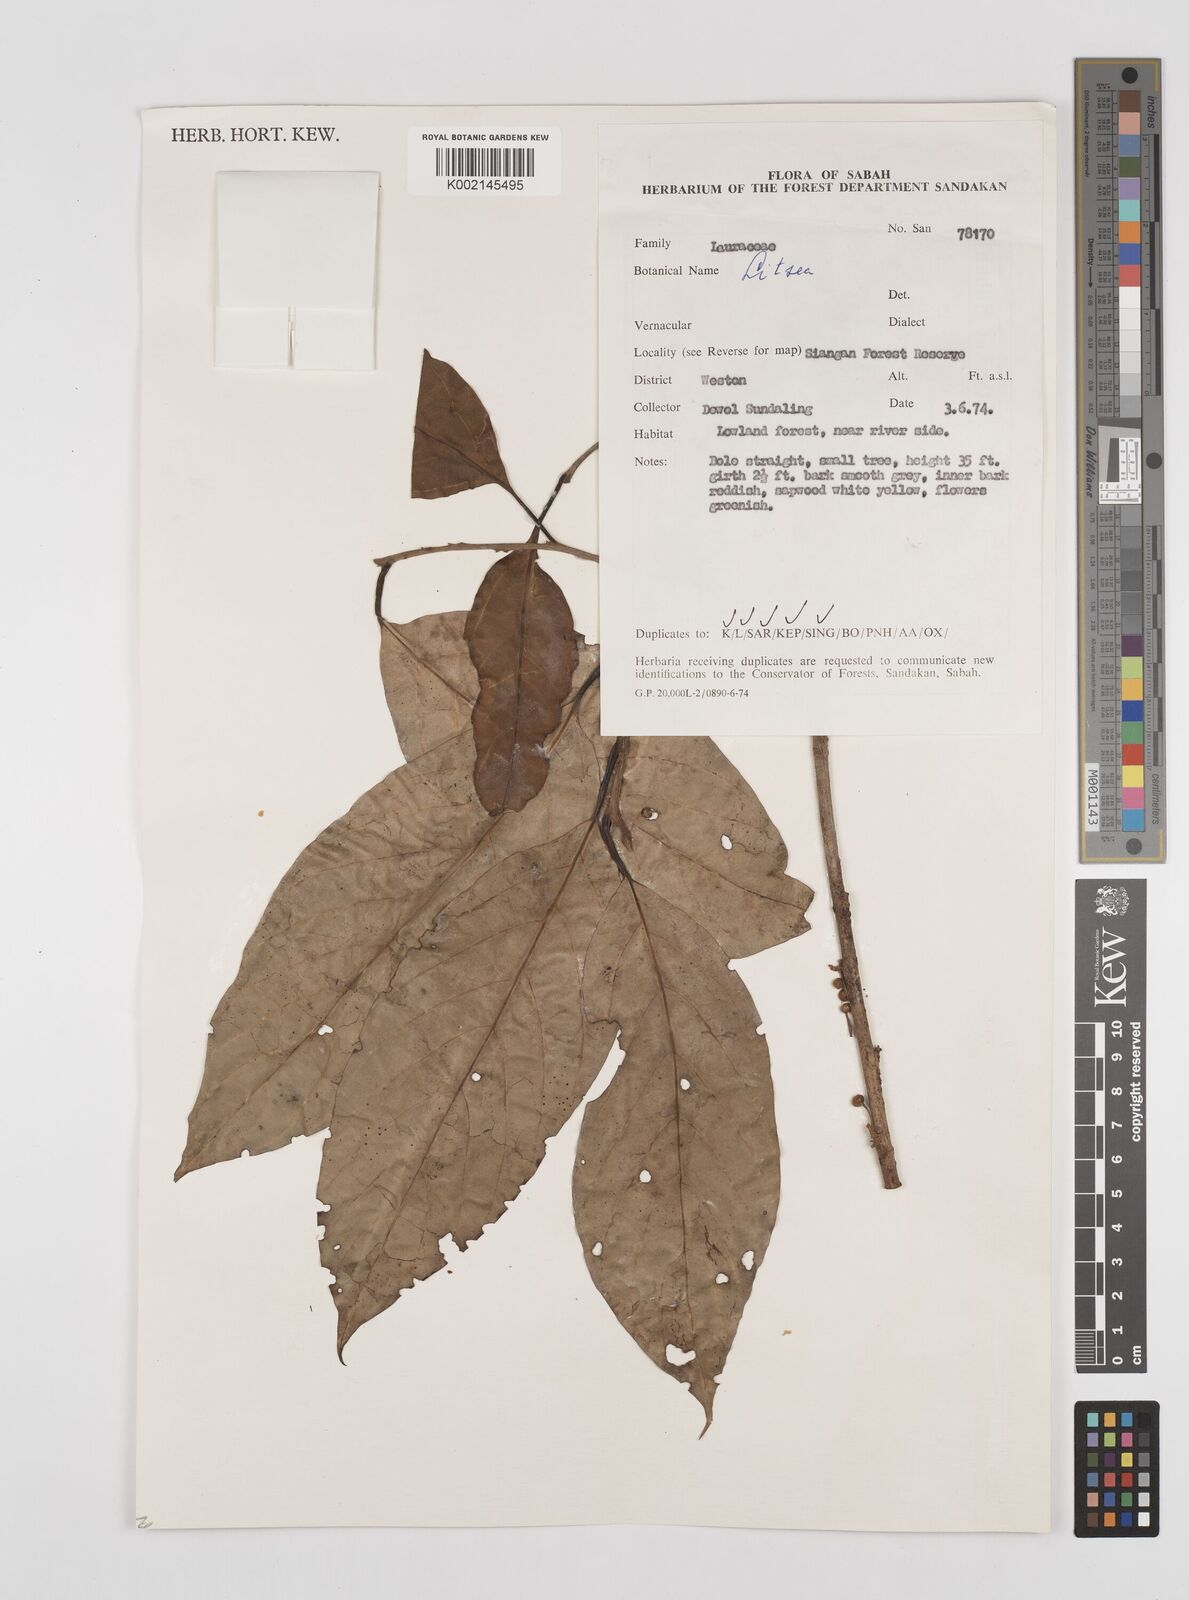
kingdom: Plantae
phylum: Tracheophyta
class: Magnoliopsida
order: Laurales
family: Lauraceae
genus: Litsea
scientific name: Litsea
